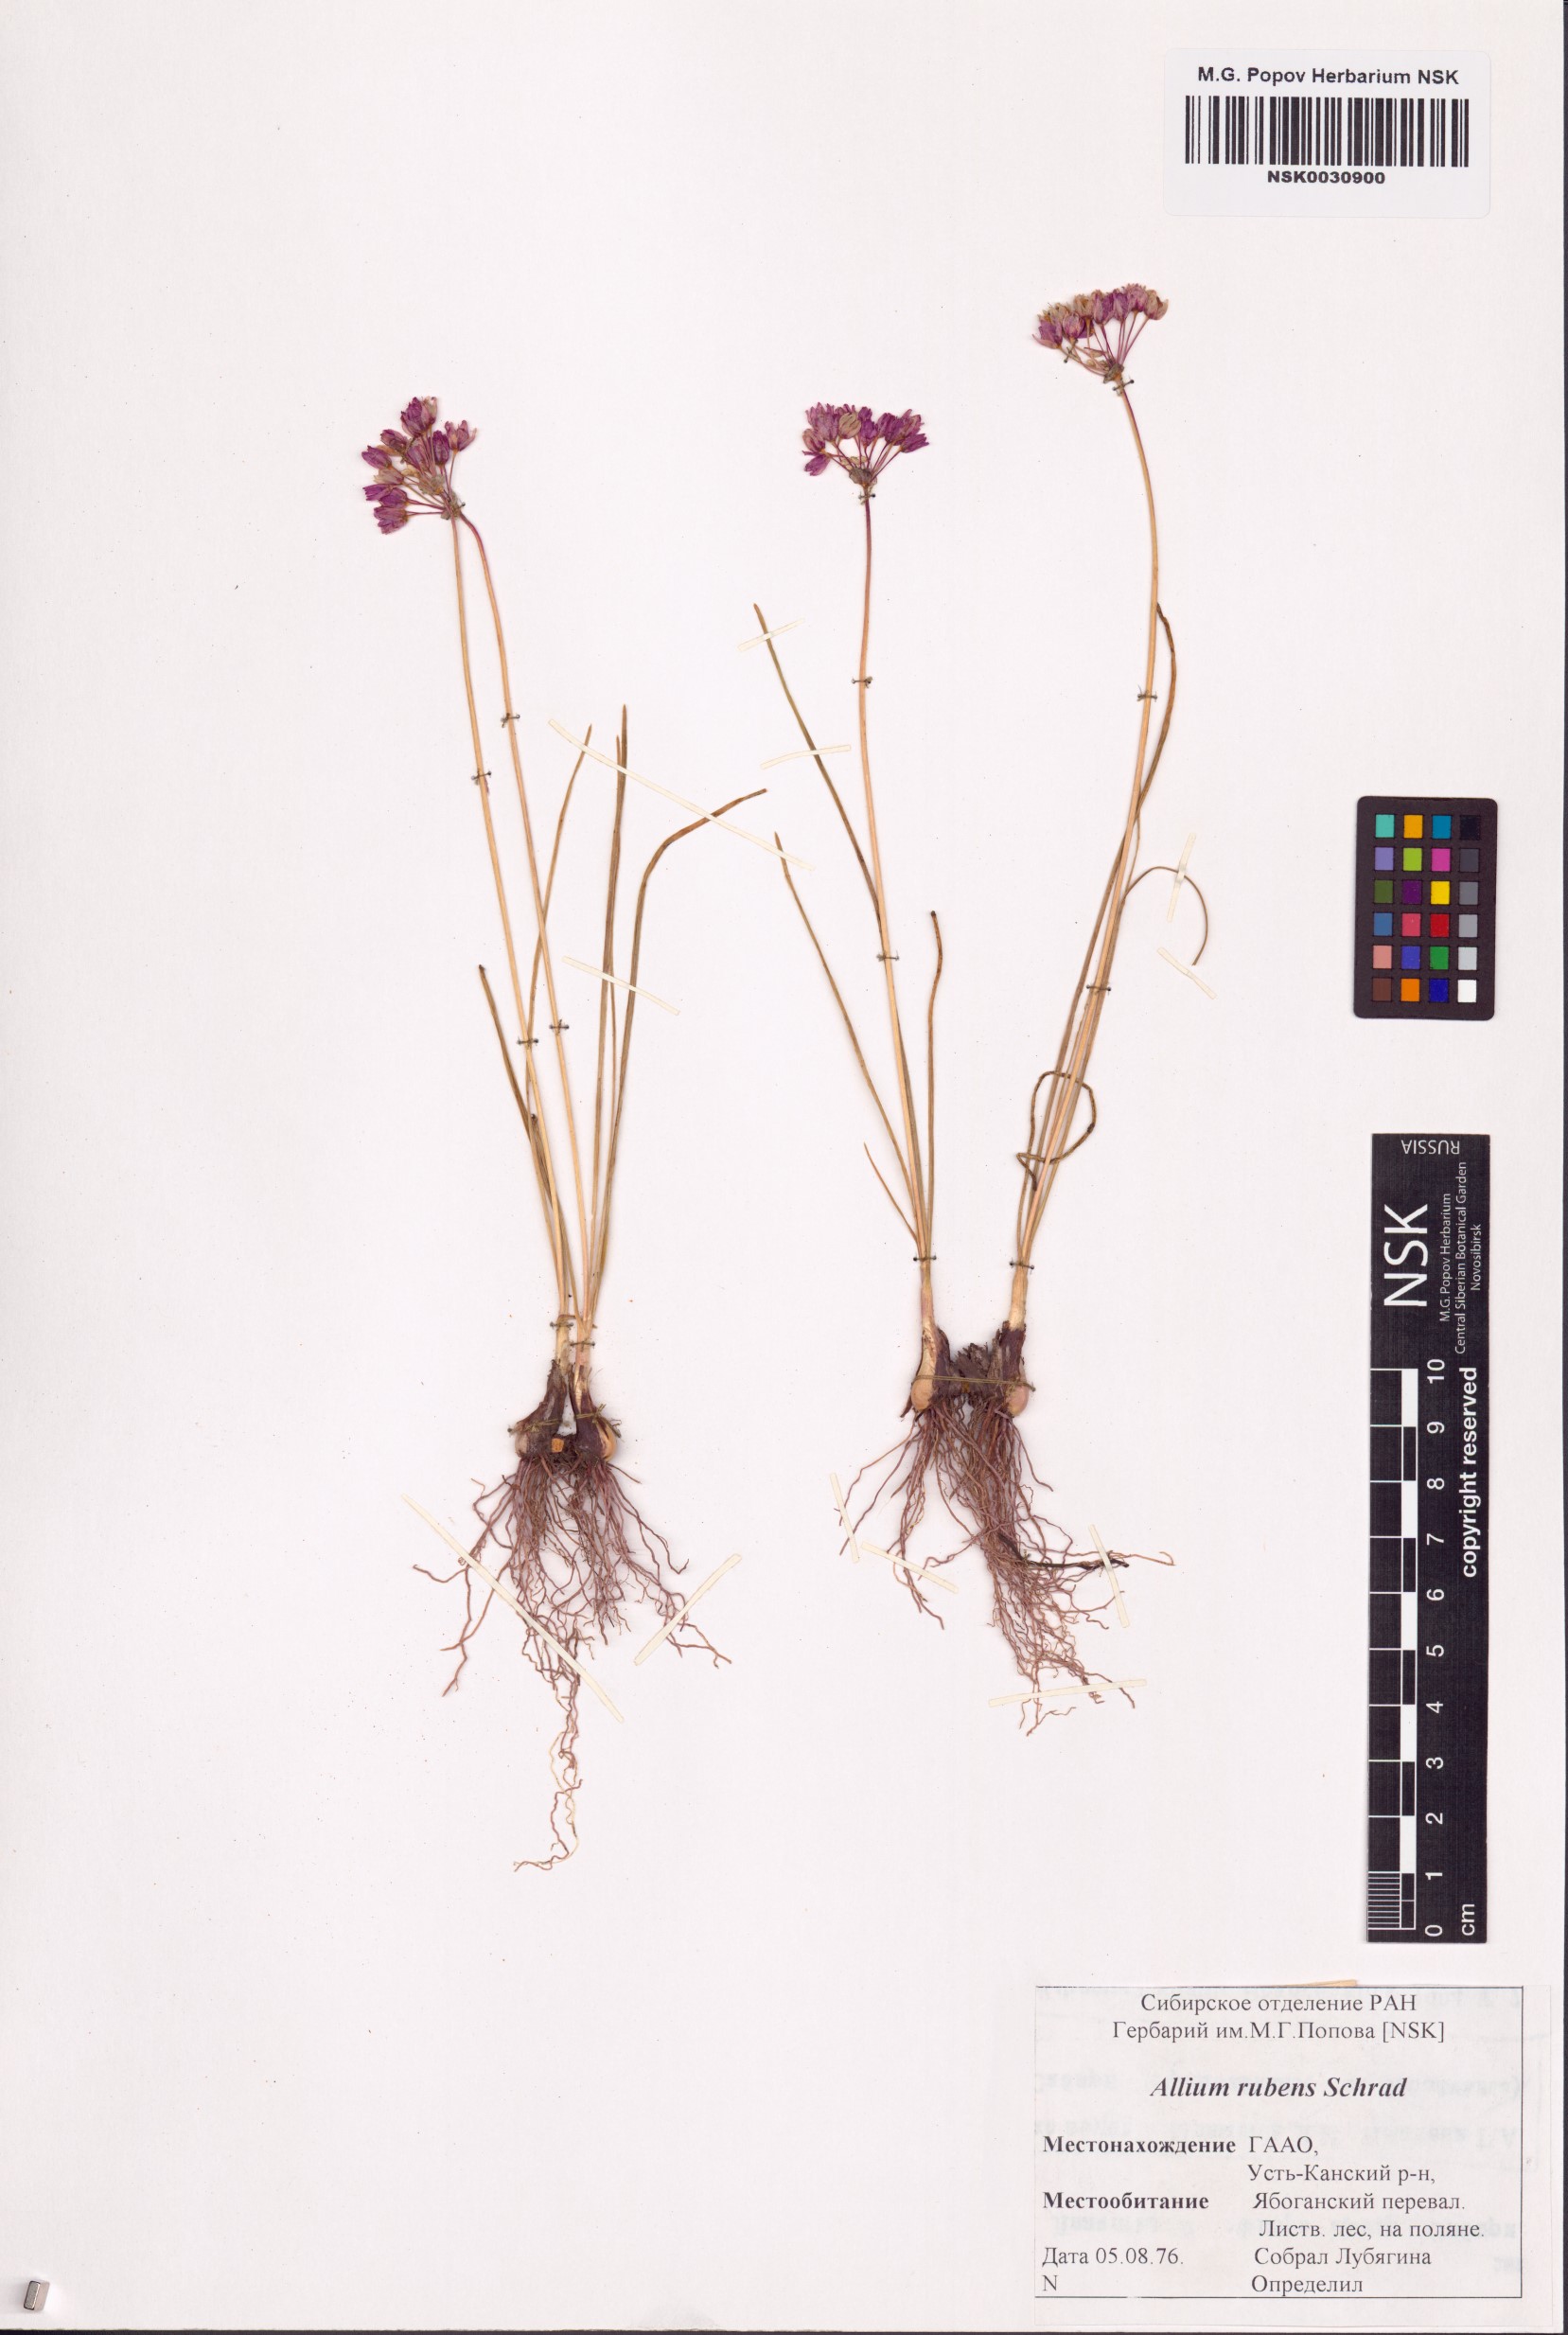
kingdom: Plantae
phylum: Tracheophyta
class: Liliopsida
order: Asparagales
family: Amaryllidaceae
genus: Allium
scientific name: Allium rubens
